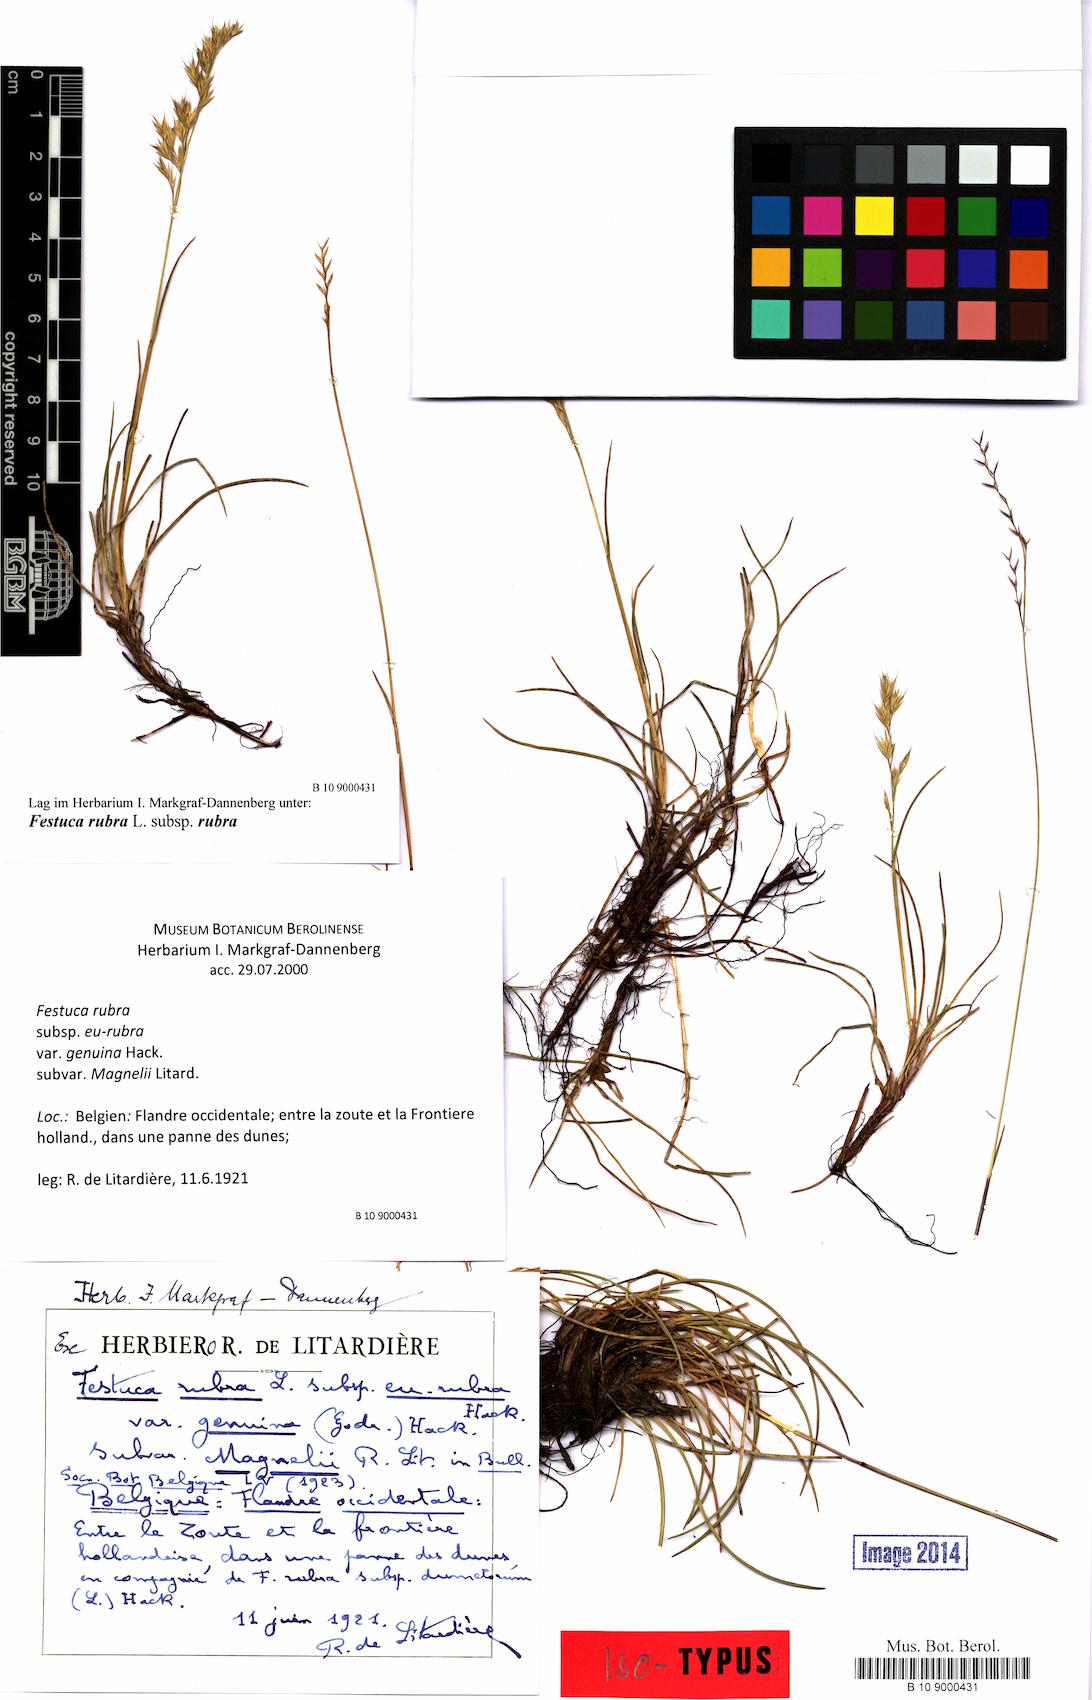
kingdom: Plantae
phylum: Tracheophyta
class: Liliopsida
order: Poales
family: Poaceae
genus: Festuca
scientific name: Festuca rubra
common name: Red fescue
